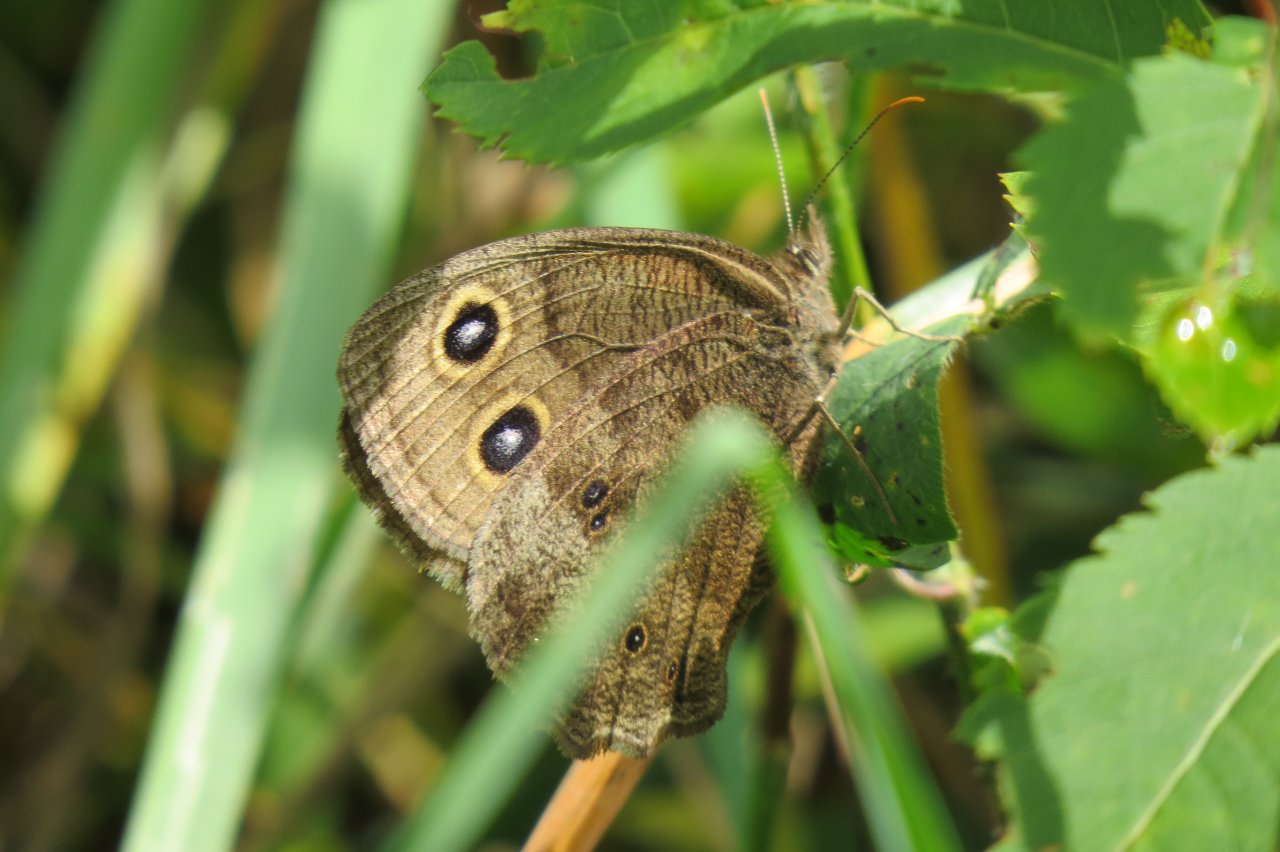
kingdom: Animalia
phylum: Arthropoda
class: Insecta
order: Lepidoptera
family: Nymphalidae
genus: Cercyonis
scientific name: Cercyonis pegala
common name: Common Wood-Nymph
